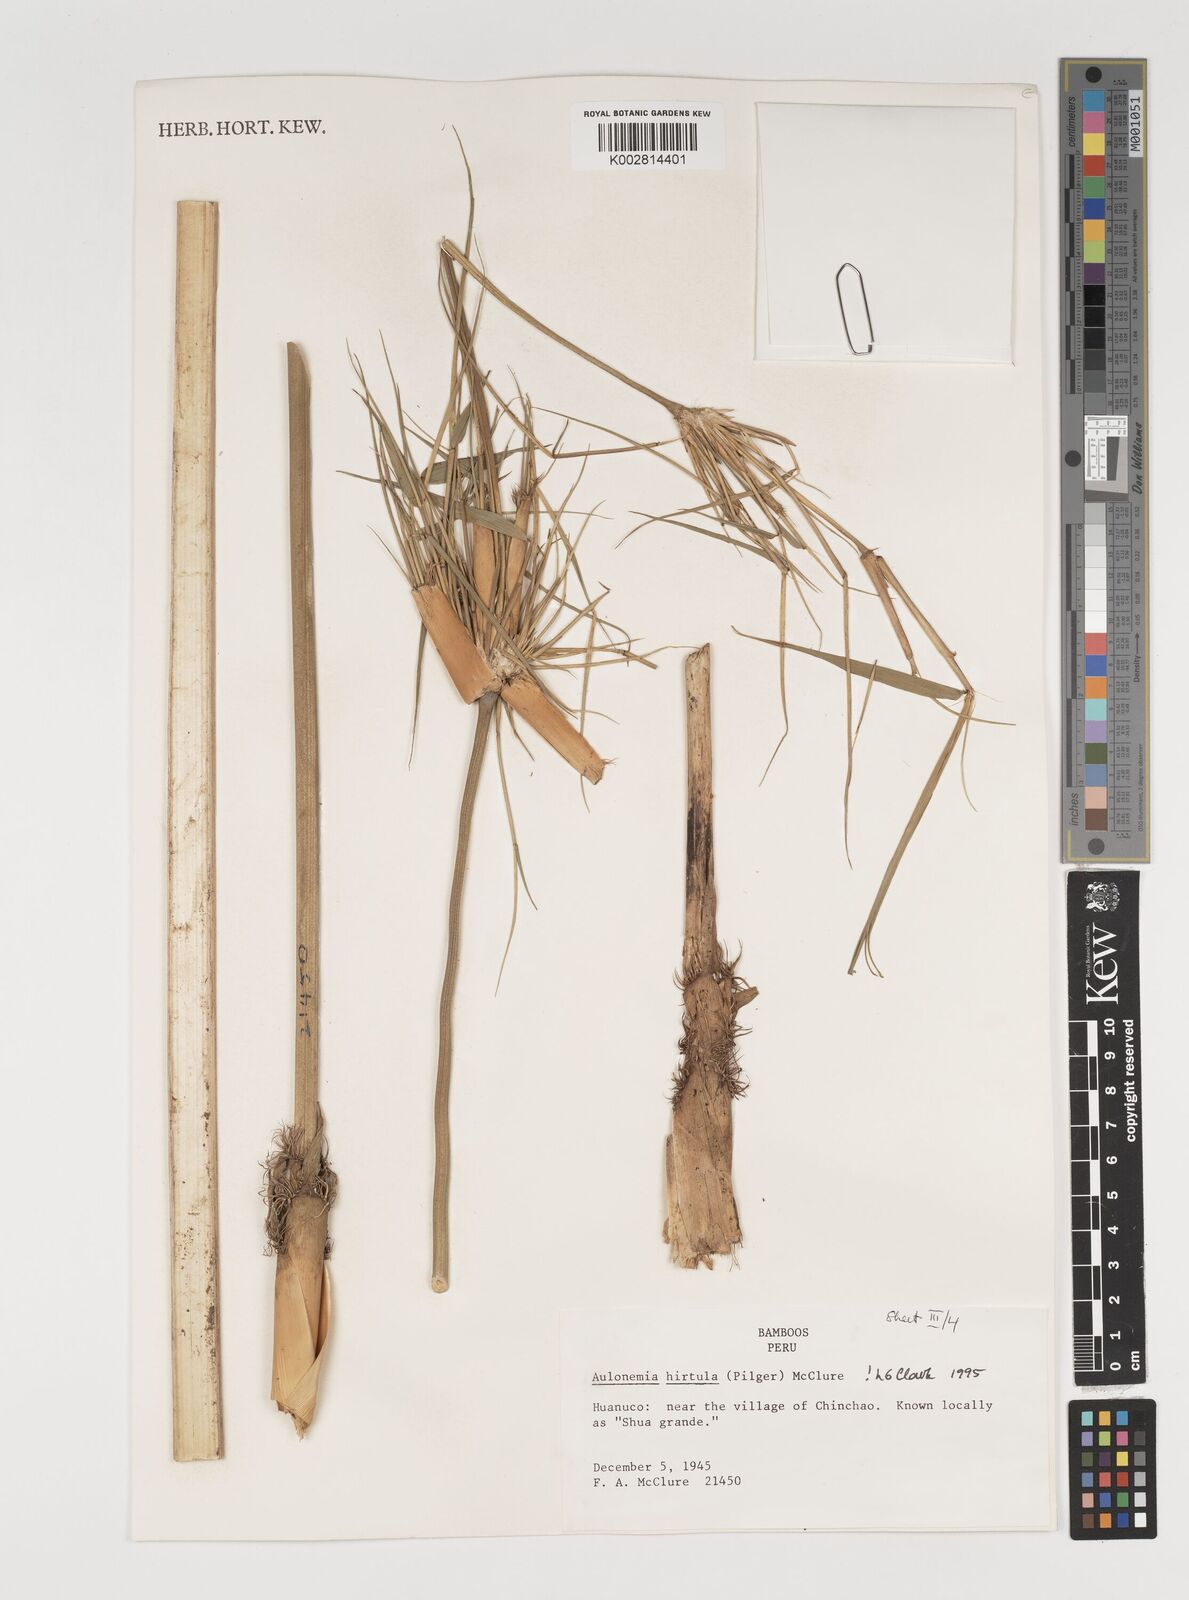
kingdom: Plantae
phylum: Tracheophyta
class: Liliopsida
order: Poales
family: Poaceae
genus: Aulonemia
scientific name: Aulonemia hirtula
